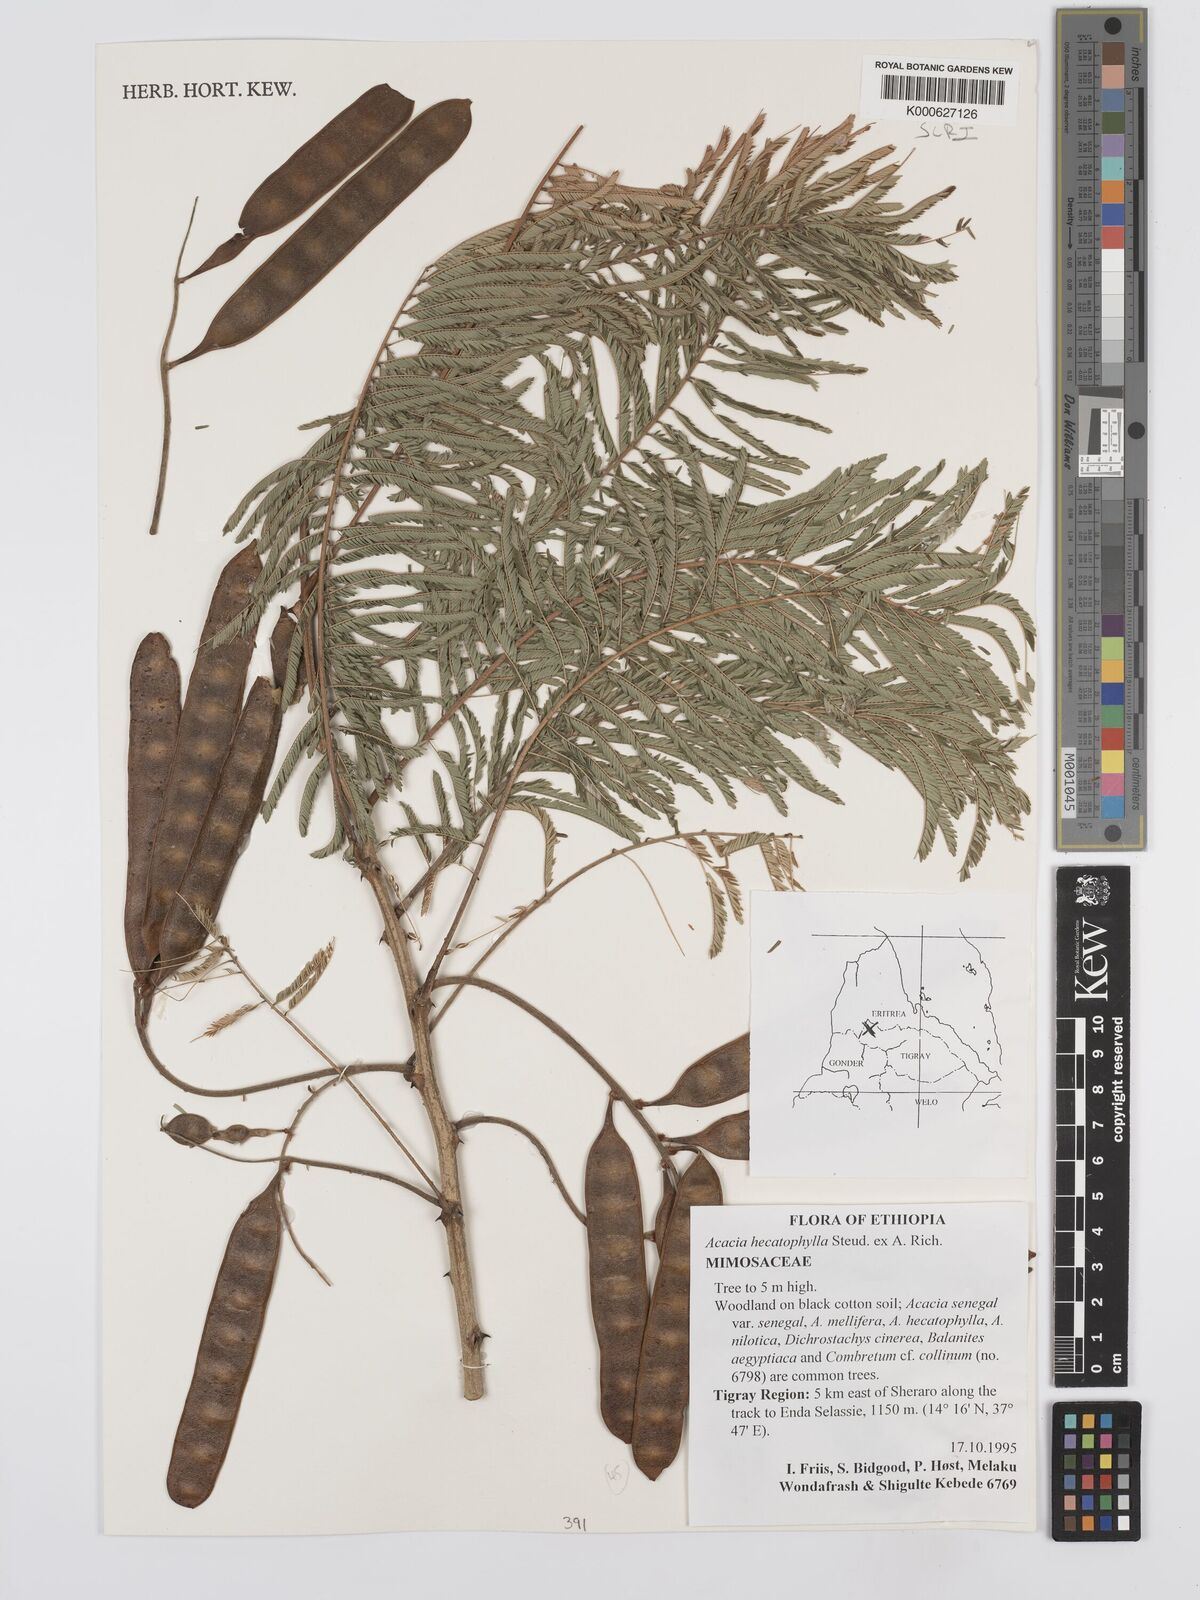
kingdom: Plantae
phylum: Tracheophyta
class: Magnoliopsida
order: Fabales
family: Fabaceae
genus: Senegalia
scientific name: Senegalia hecatophylla
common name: Long pod
